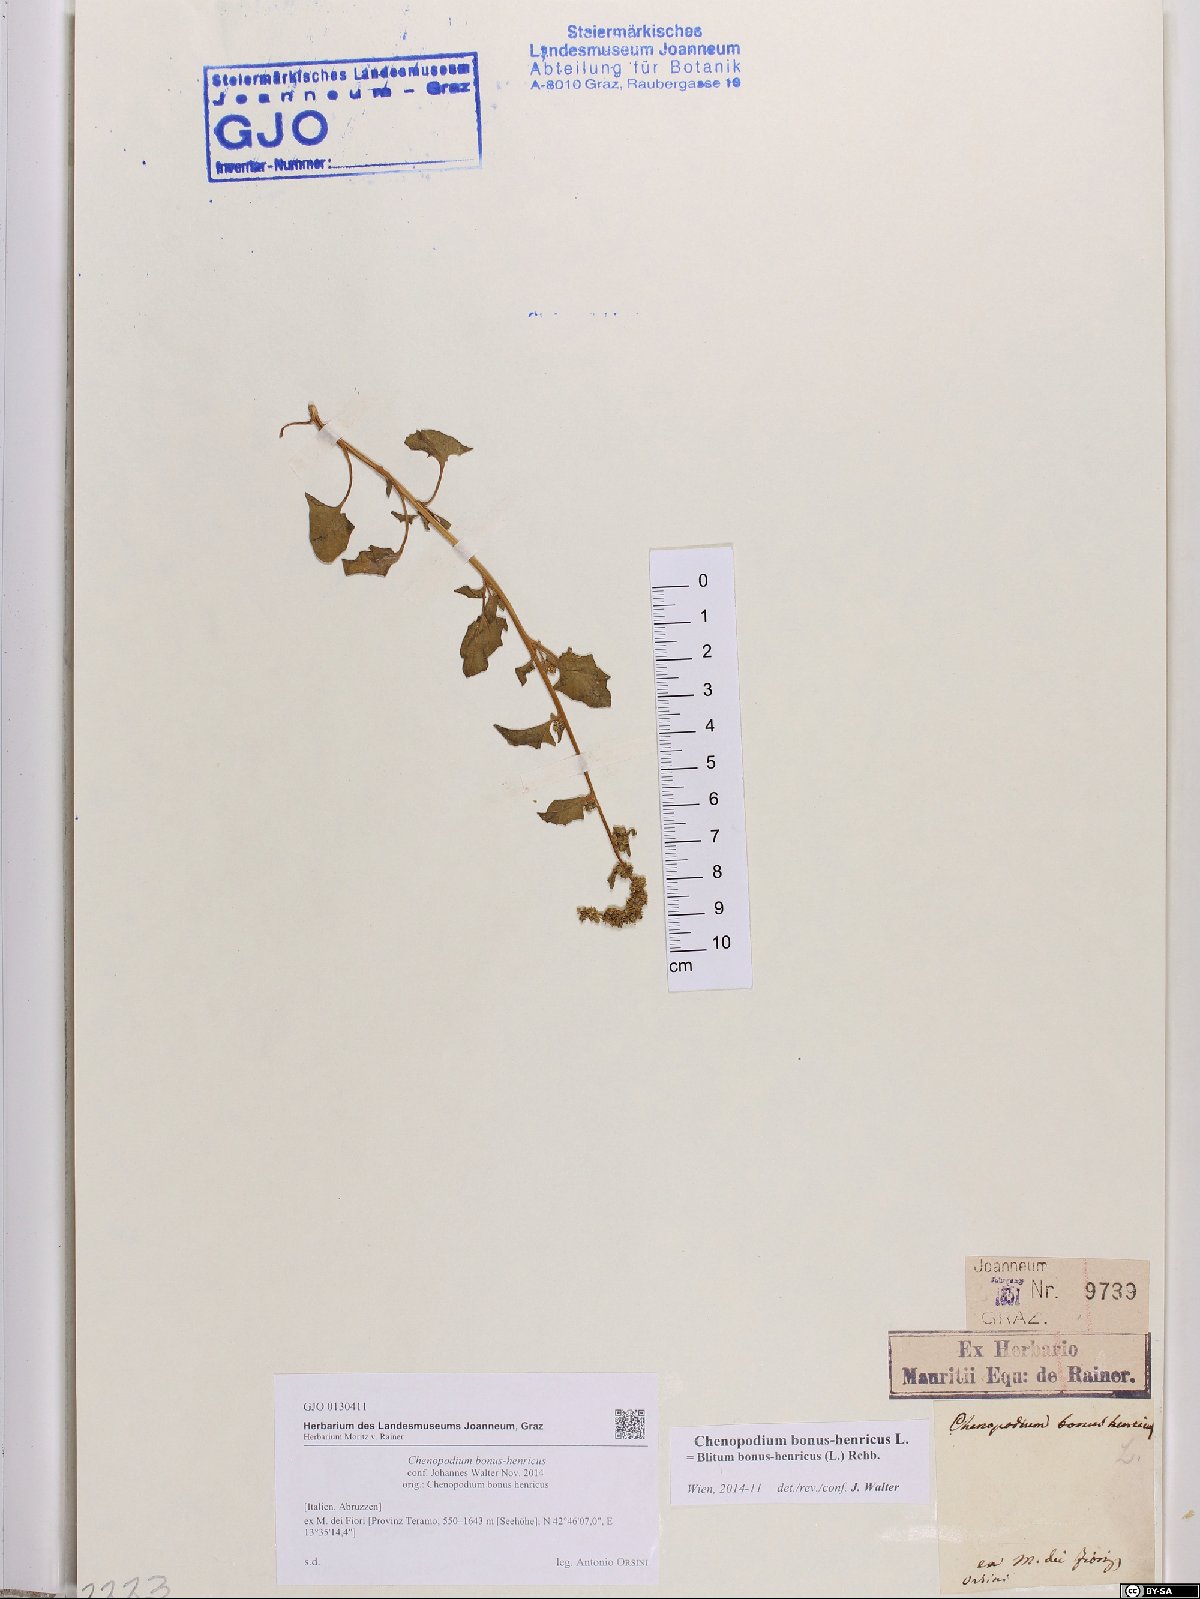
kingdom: Plantae
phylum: Tracheophyta
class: Magnoliopsida
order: Caryophyllales
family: Amaranthaceae
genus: Blitum
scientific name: Blitum bonus-henricus
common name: Good king henry
